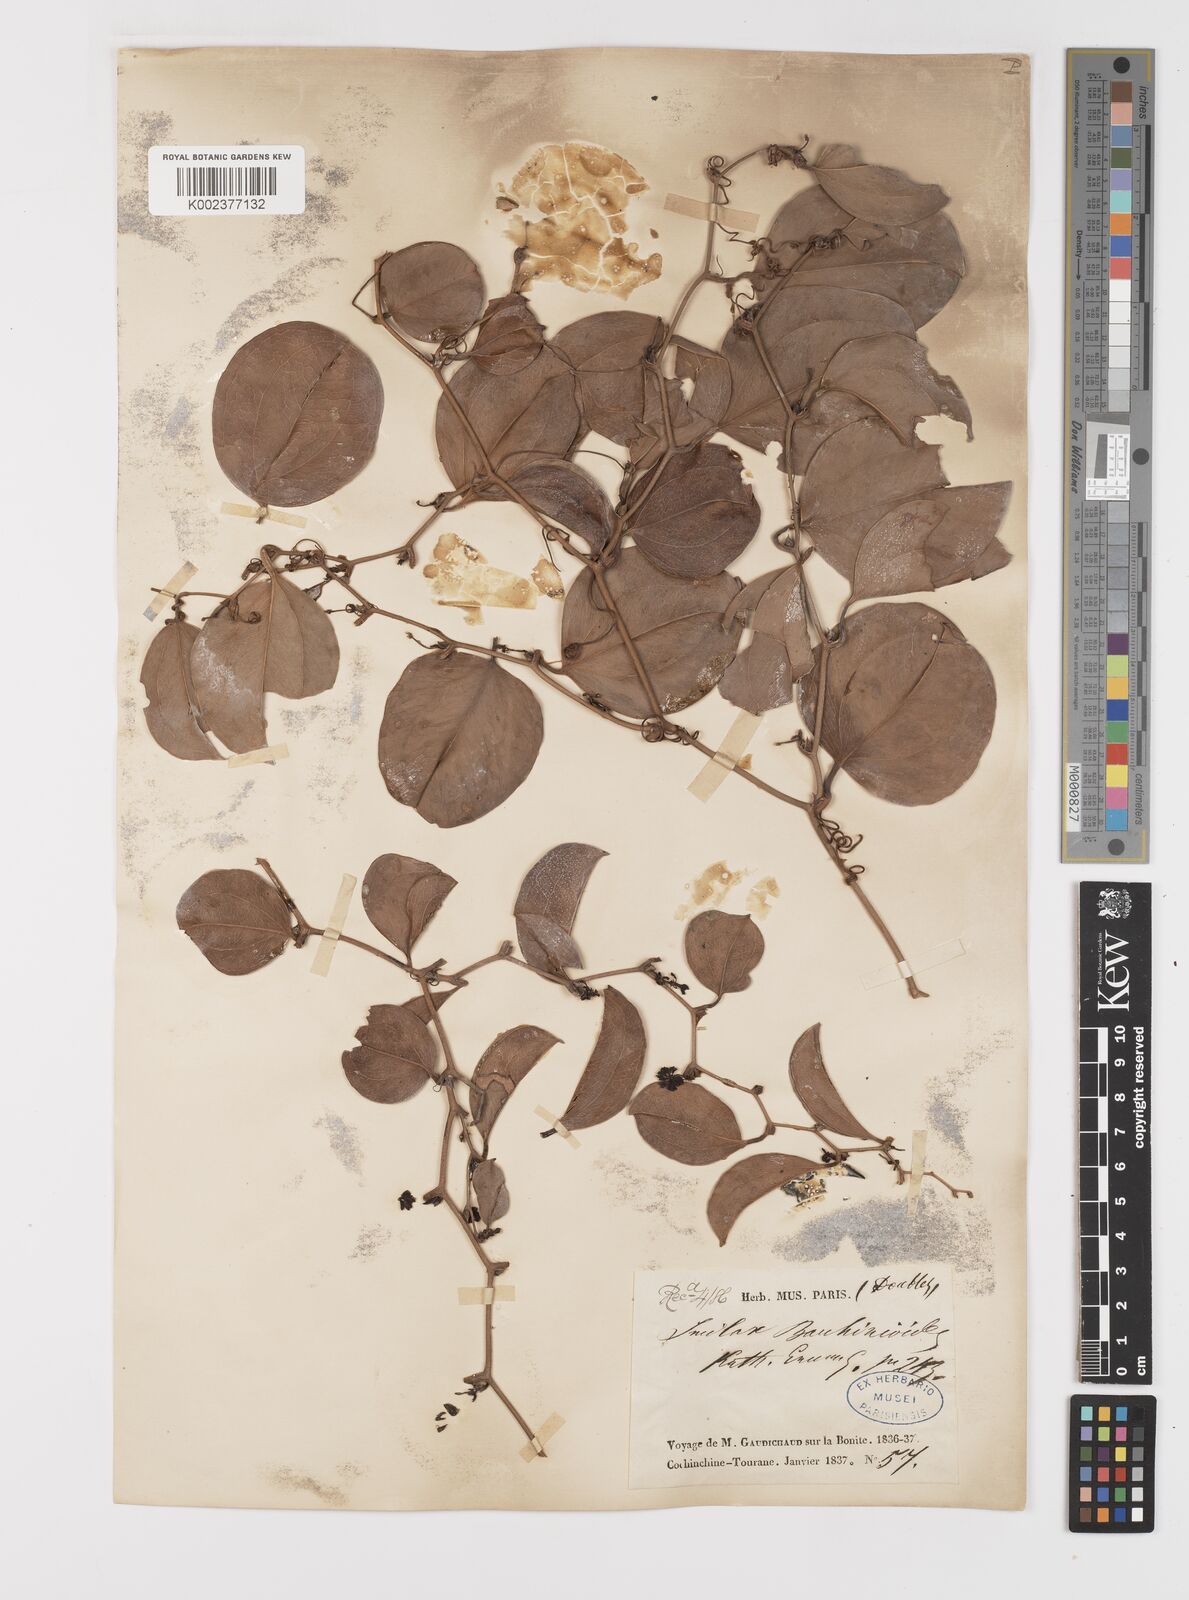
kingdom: Plantae
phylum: Tracheophyta
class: Liliopsida
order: Liliales
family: Smilacaceae
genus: Smilax
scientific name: Smilax bauhinioides
